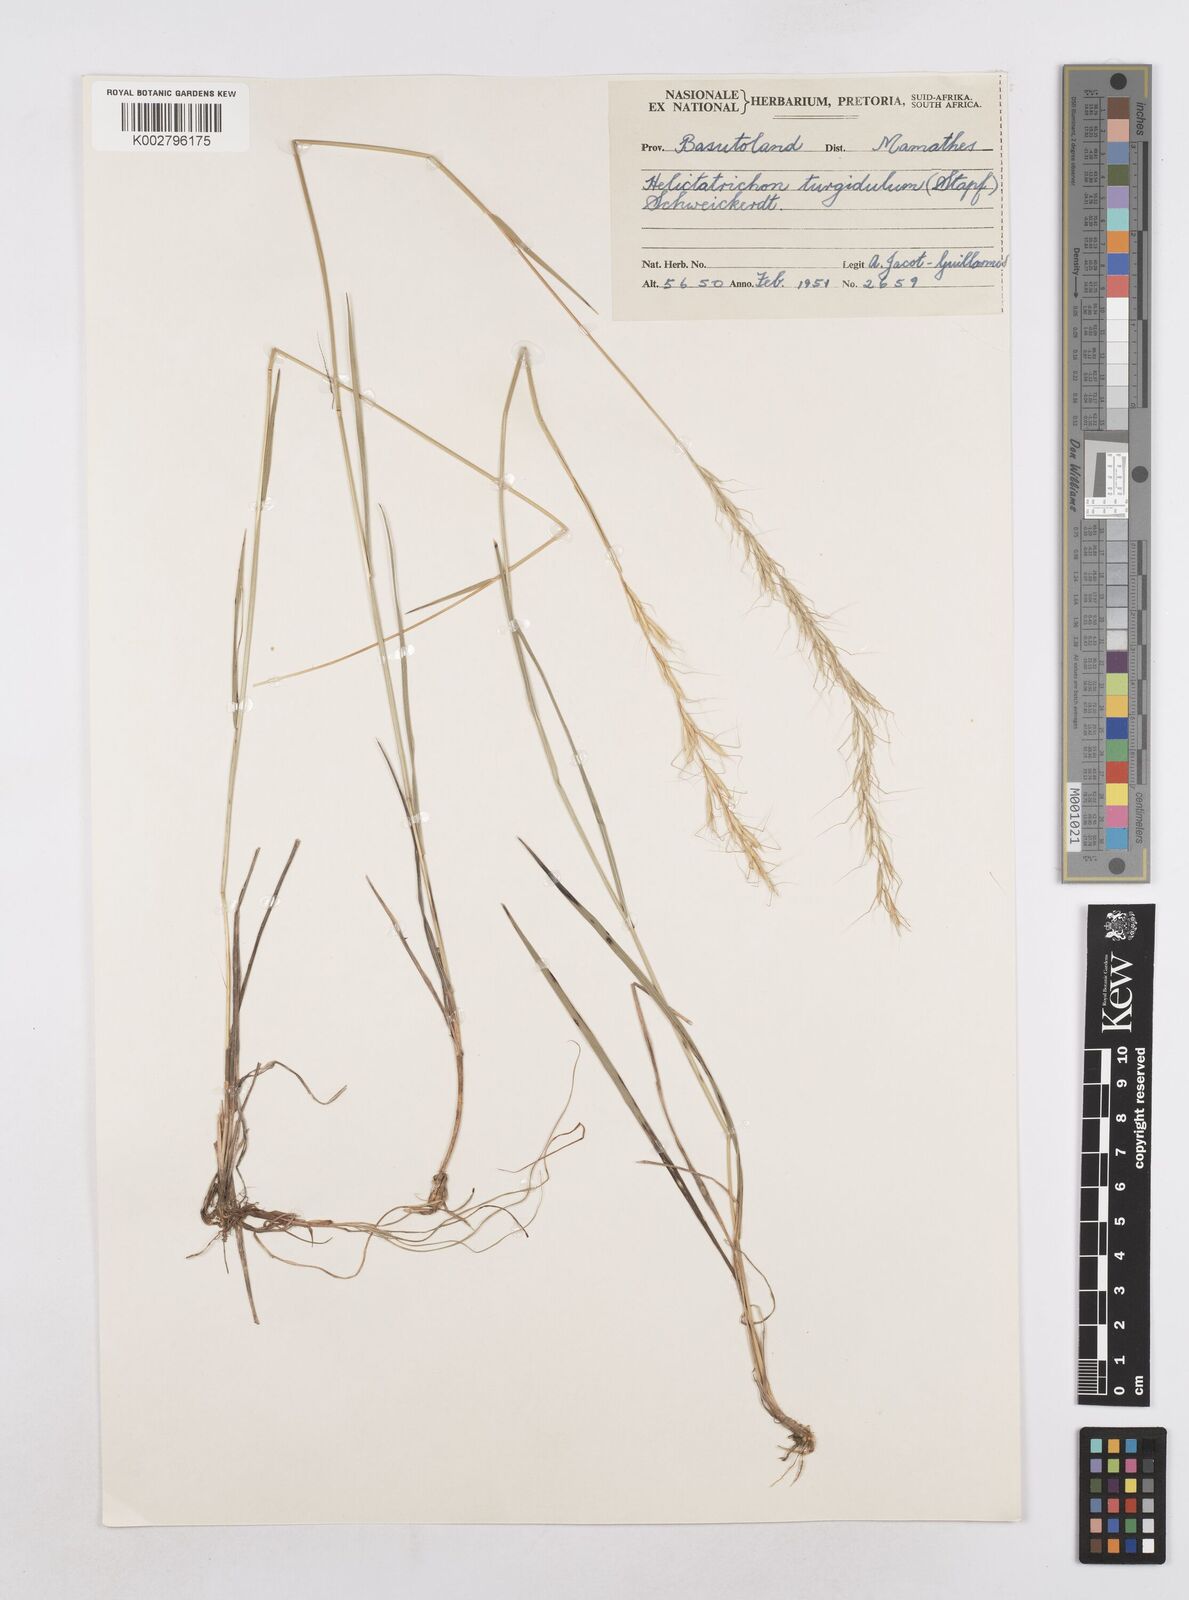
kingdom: Plantae
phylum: Tracheophyta
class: Liliopsida
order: Poales
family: Poaceae
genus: Trisetopsis
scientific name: Trisetopsis imberbis
